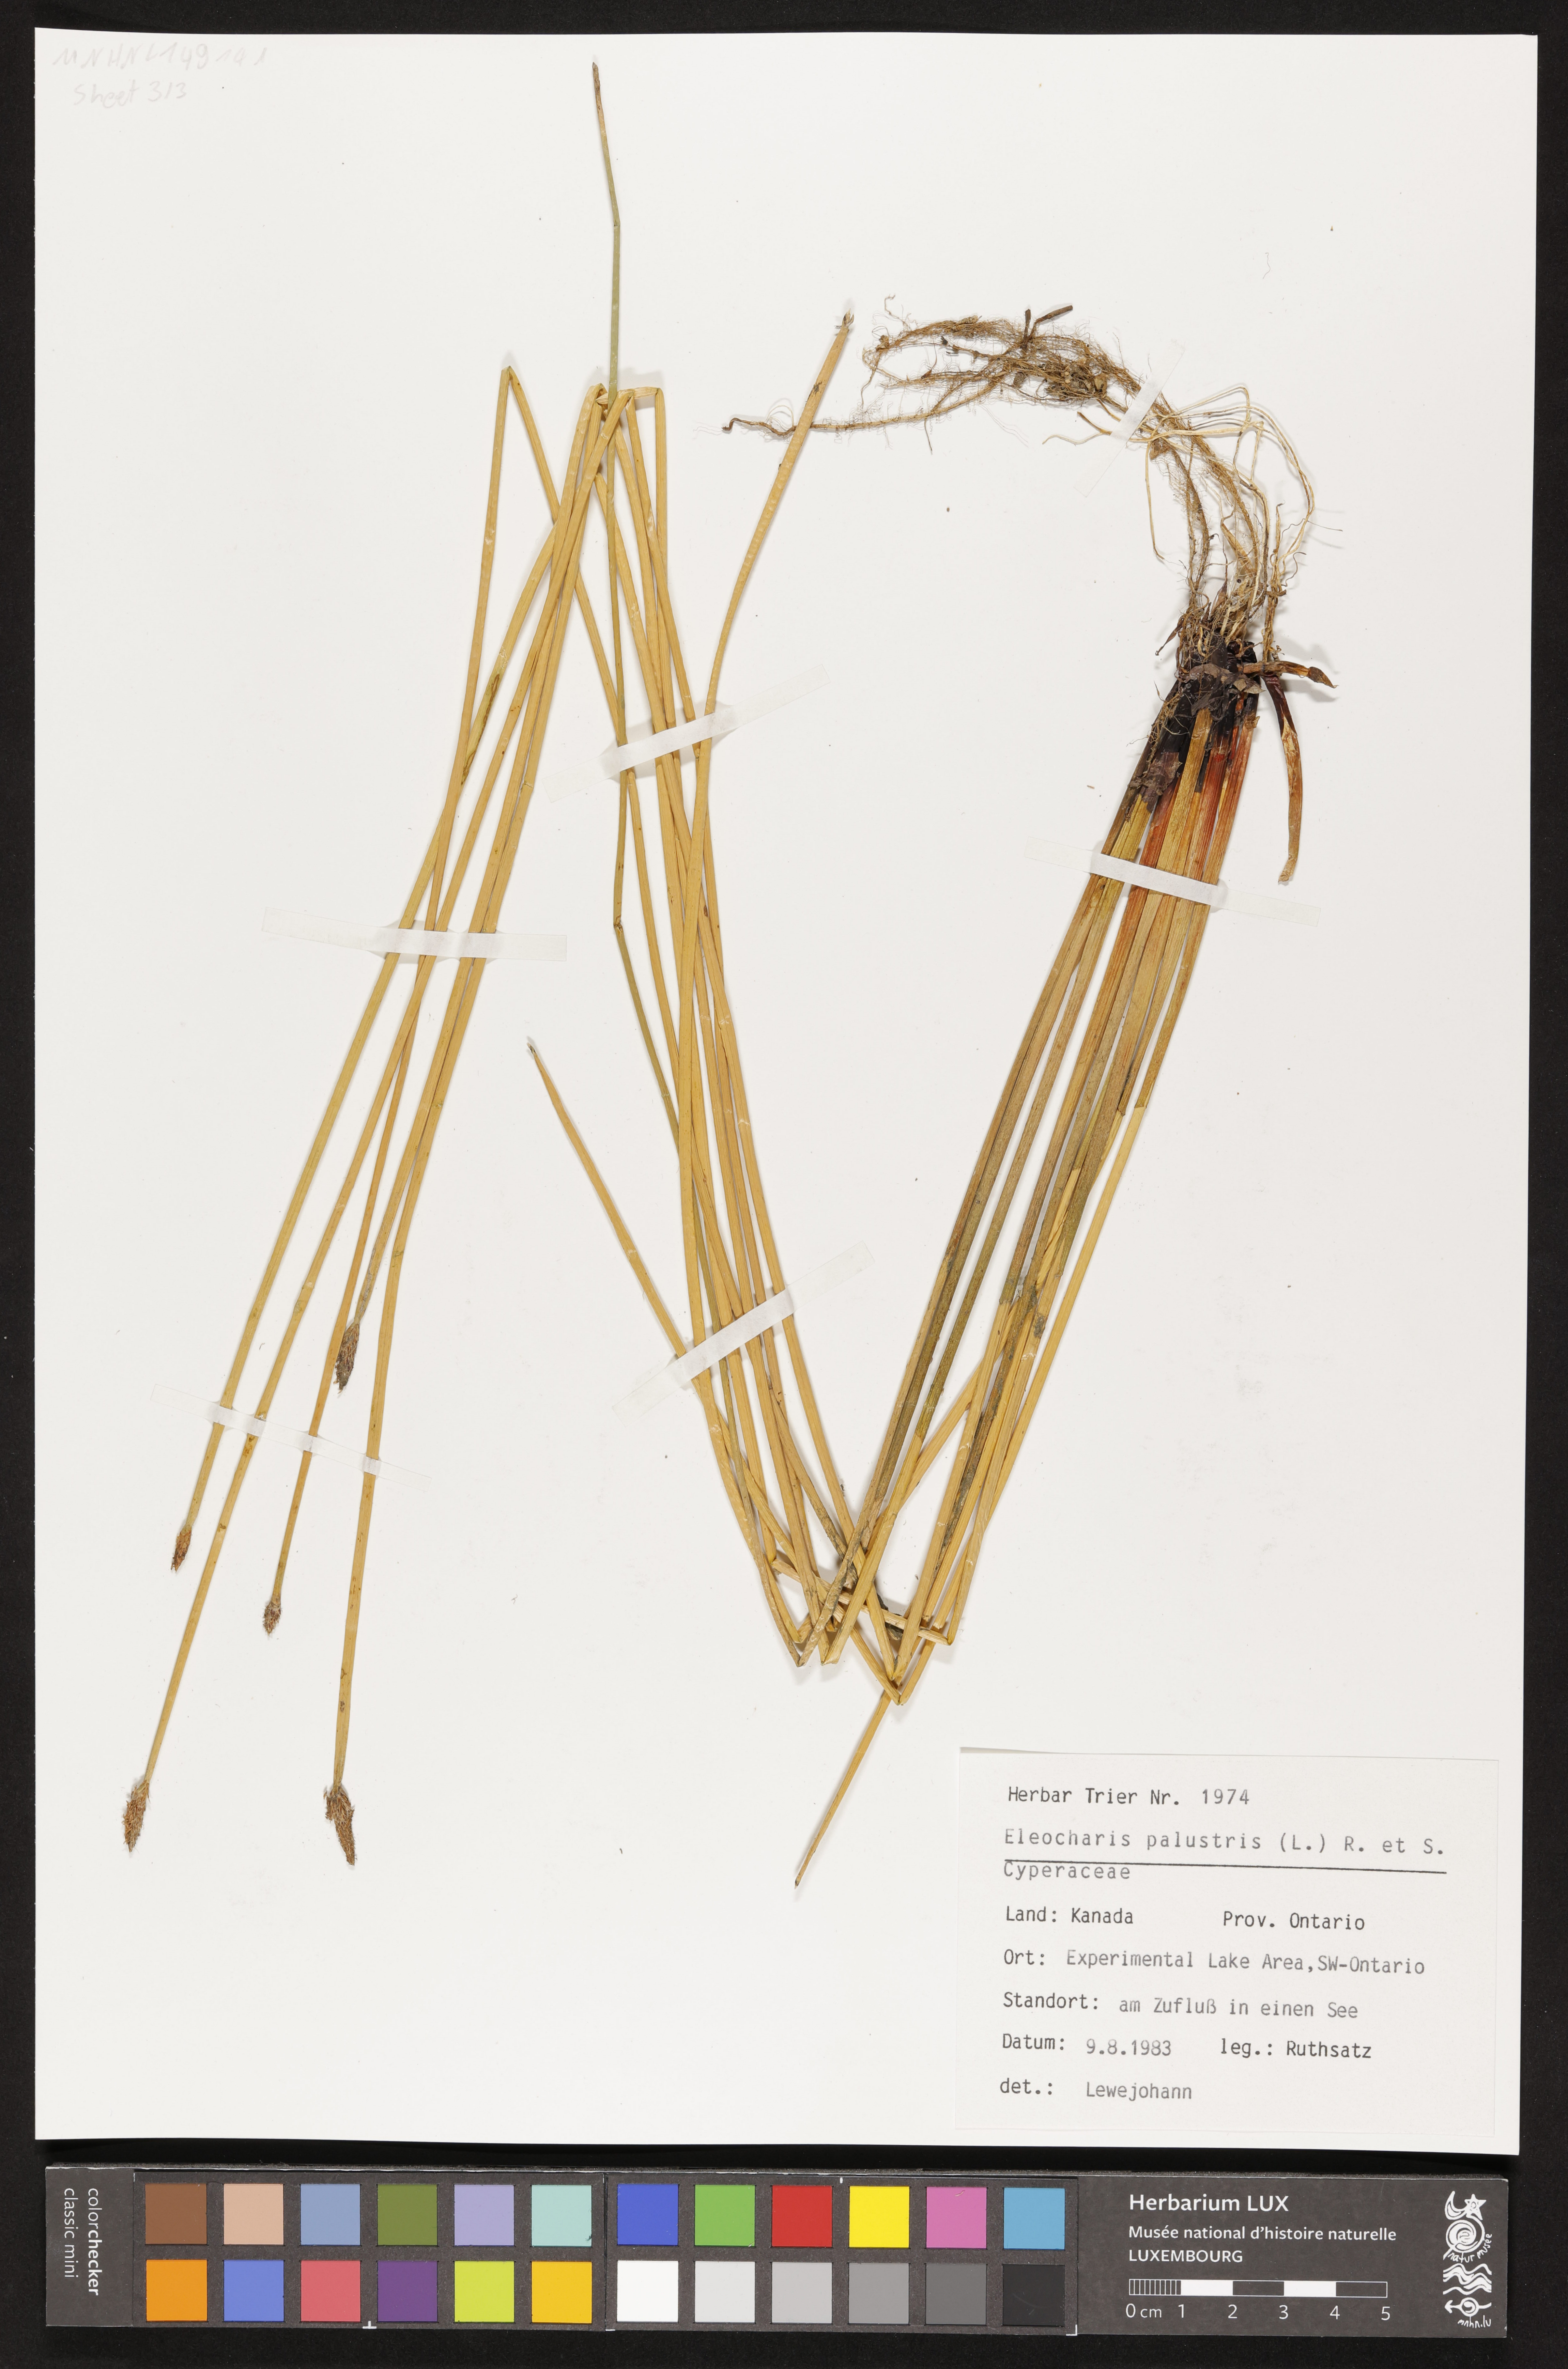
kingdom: Plantae
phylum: Tracheophyta
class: Liliopsida
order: Poales
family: Cyperaceae
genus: Eleocharis
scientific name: Eleocharis palustris
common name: Common spike-rush
